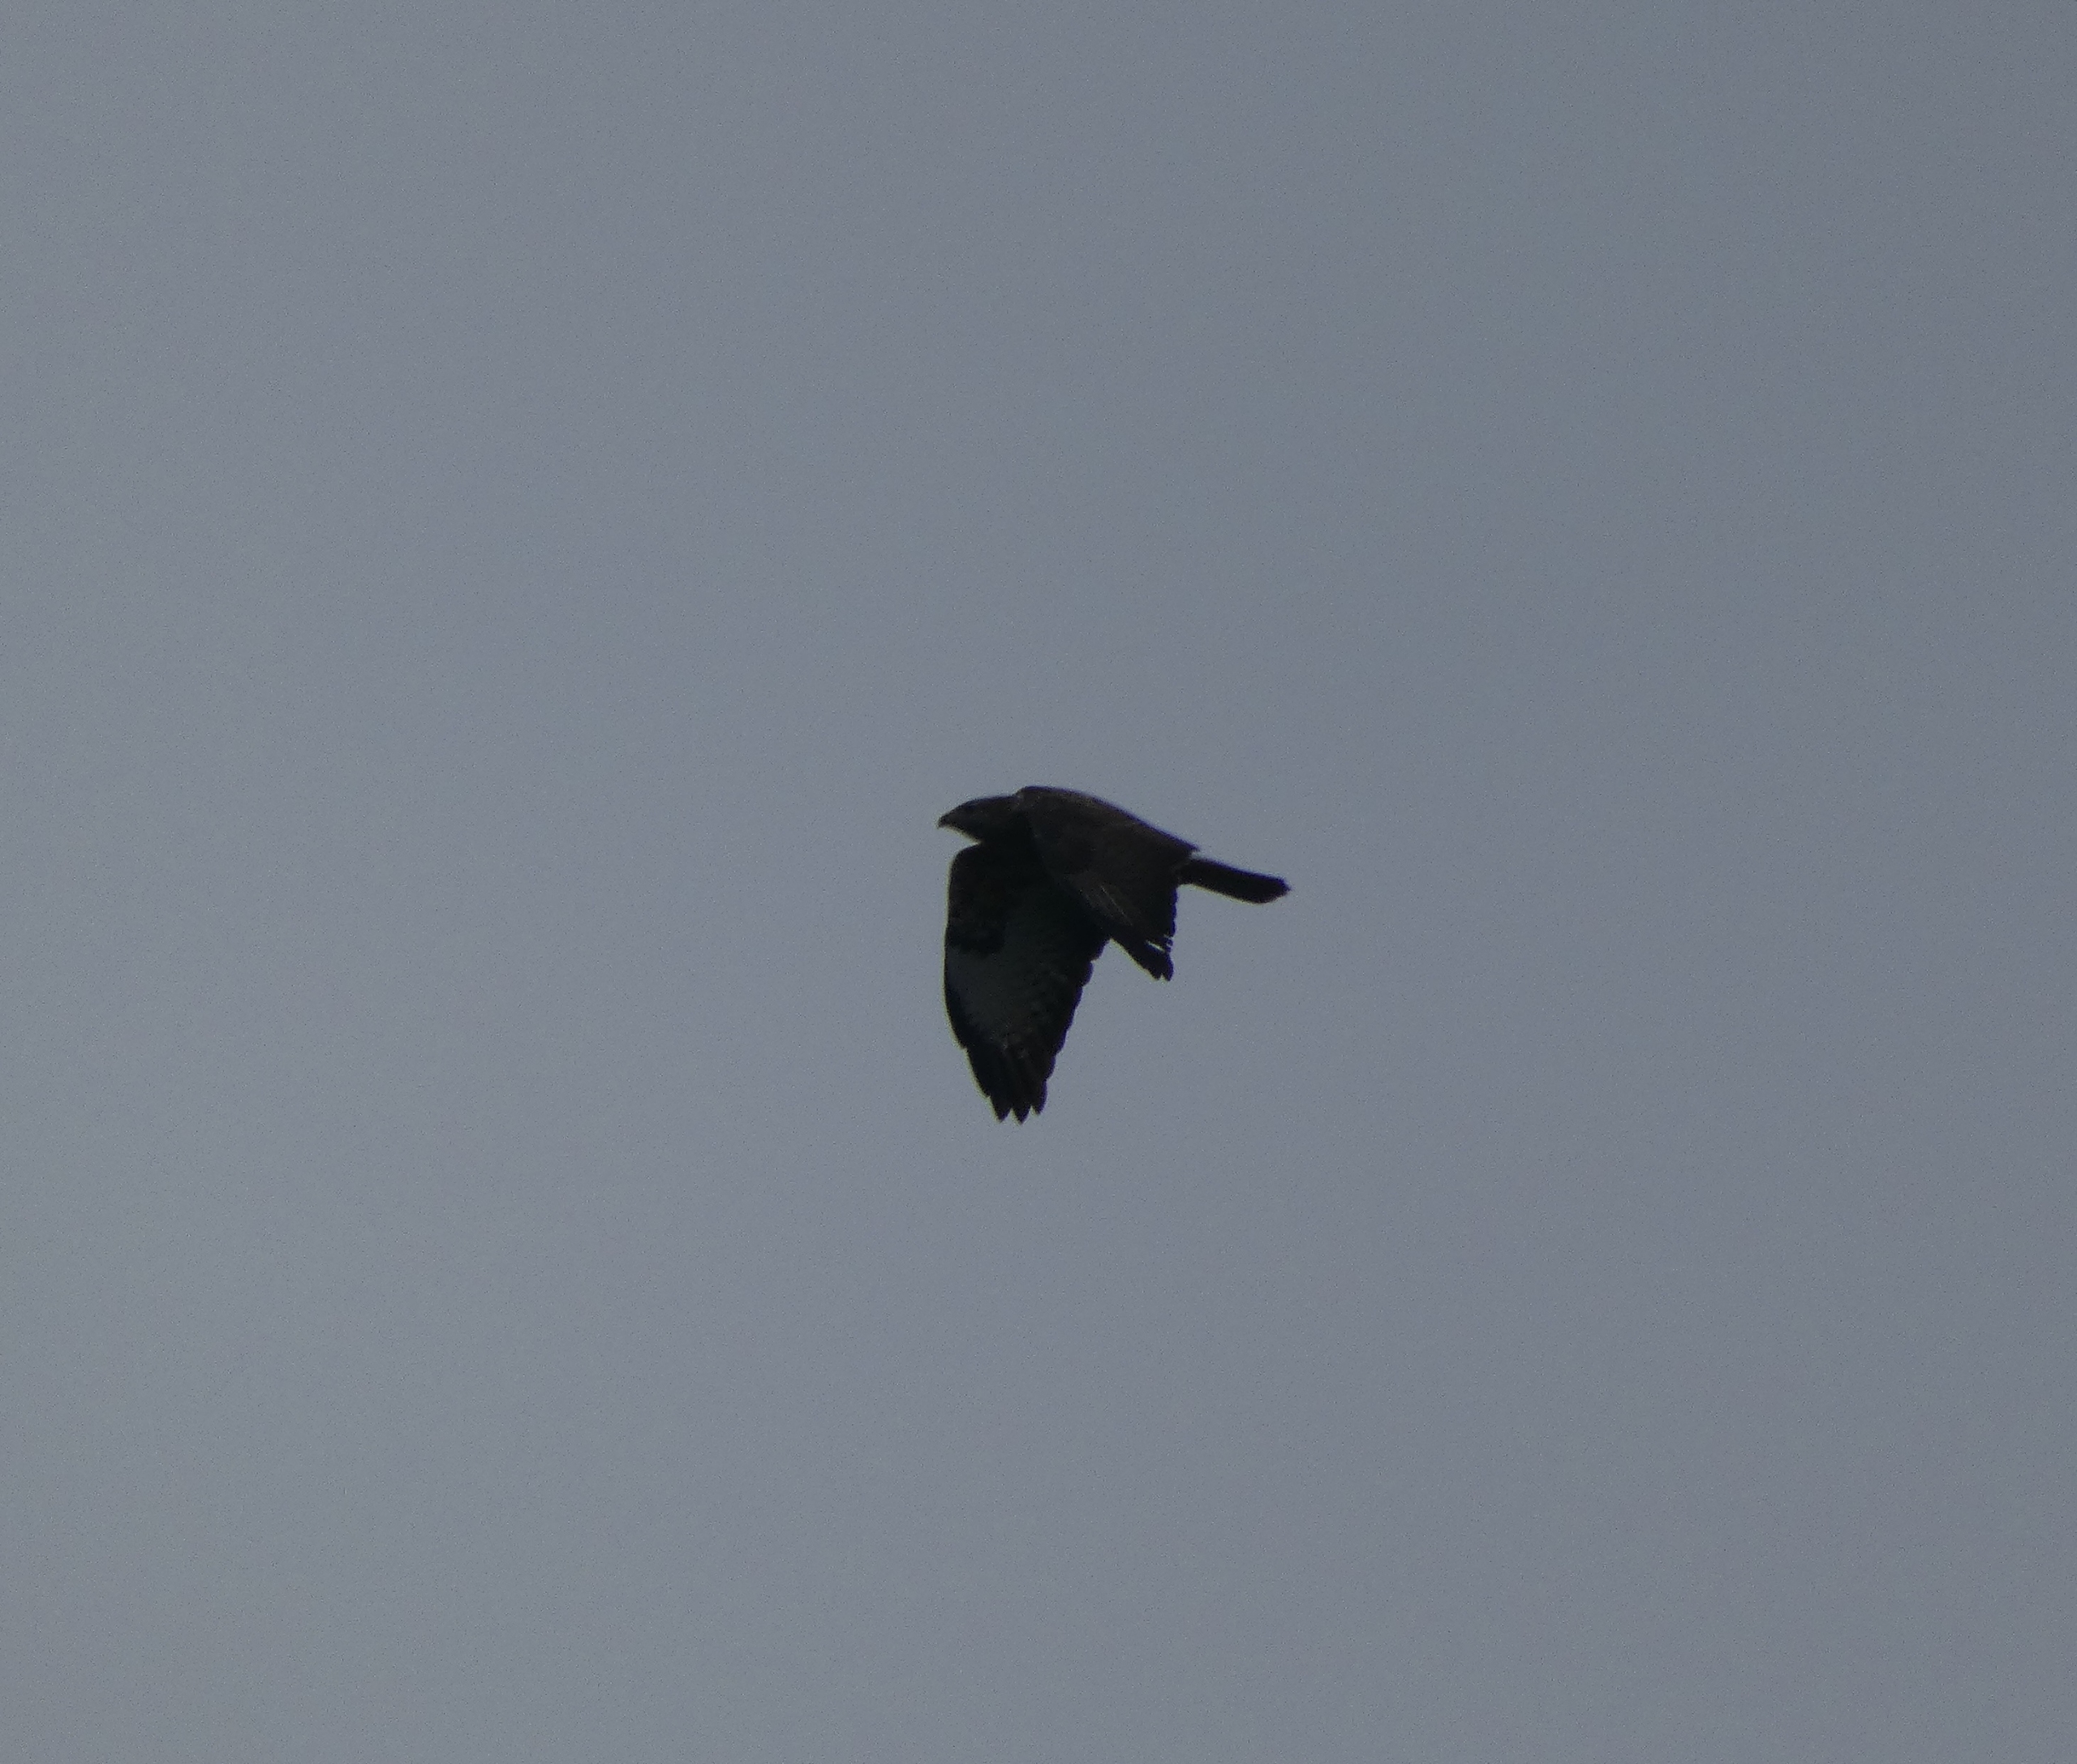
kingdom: Animalia
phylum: Chordata
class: Aves
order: Accipitriformes
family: Accipitridae
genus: Buteo
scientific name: Buteo buteo
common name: Musvåge
